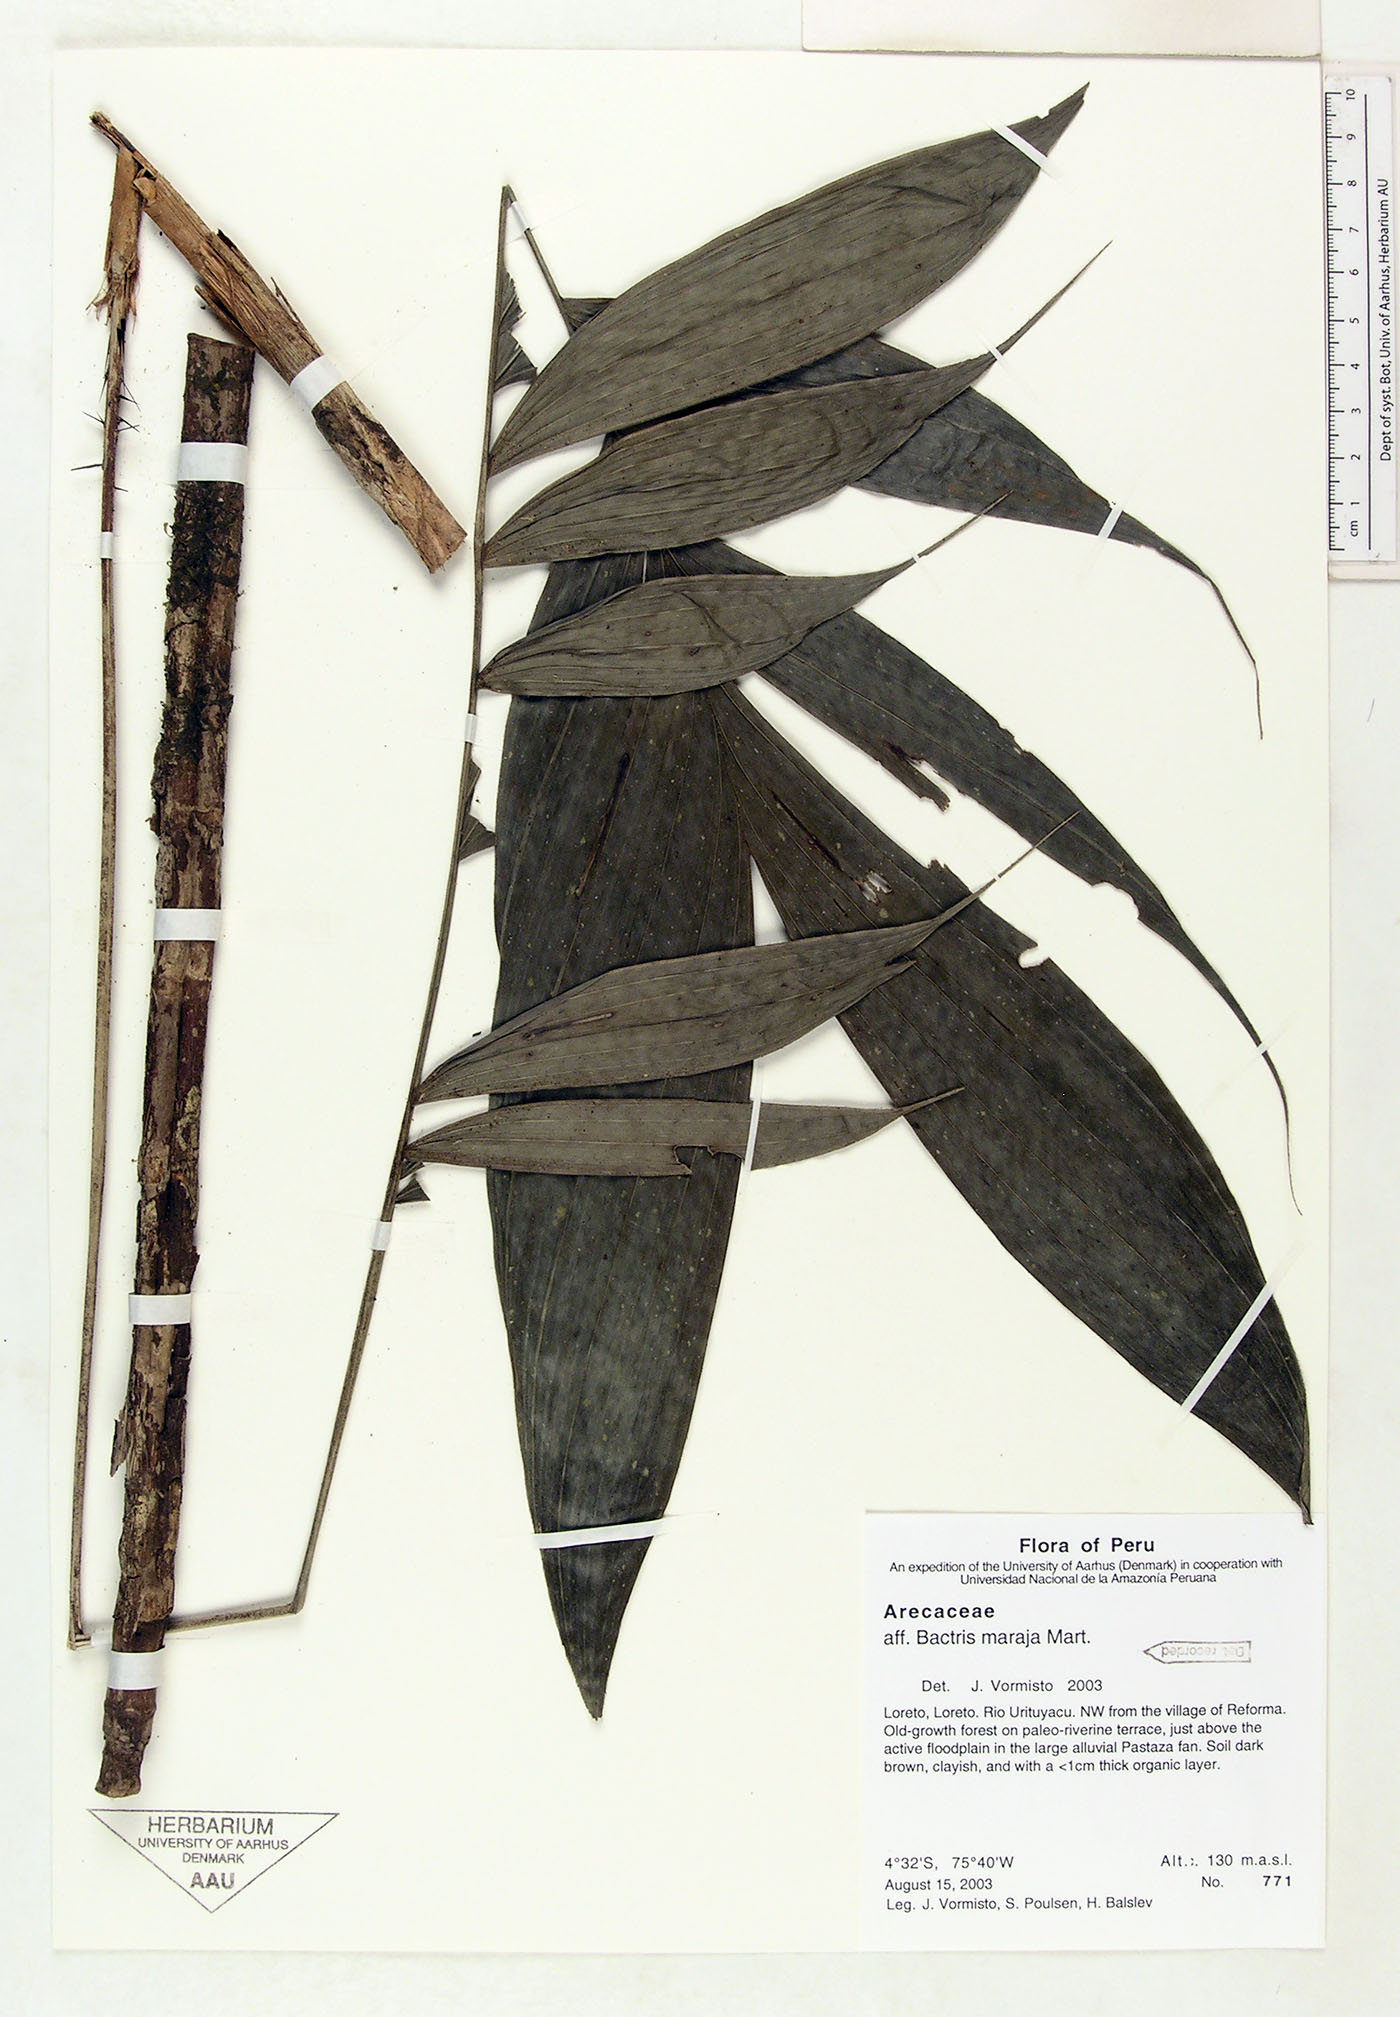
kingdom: Plantae
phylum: Tracheophyta
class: Liliopsida
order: Arecales
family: Arecaceae
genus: Bactris
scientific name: Bactris maraja
